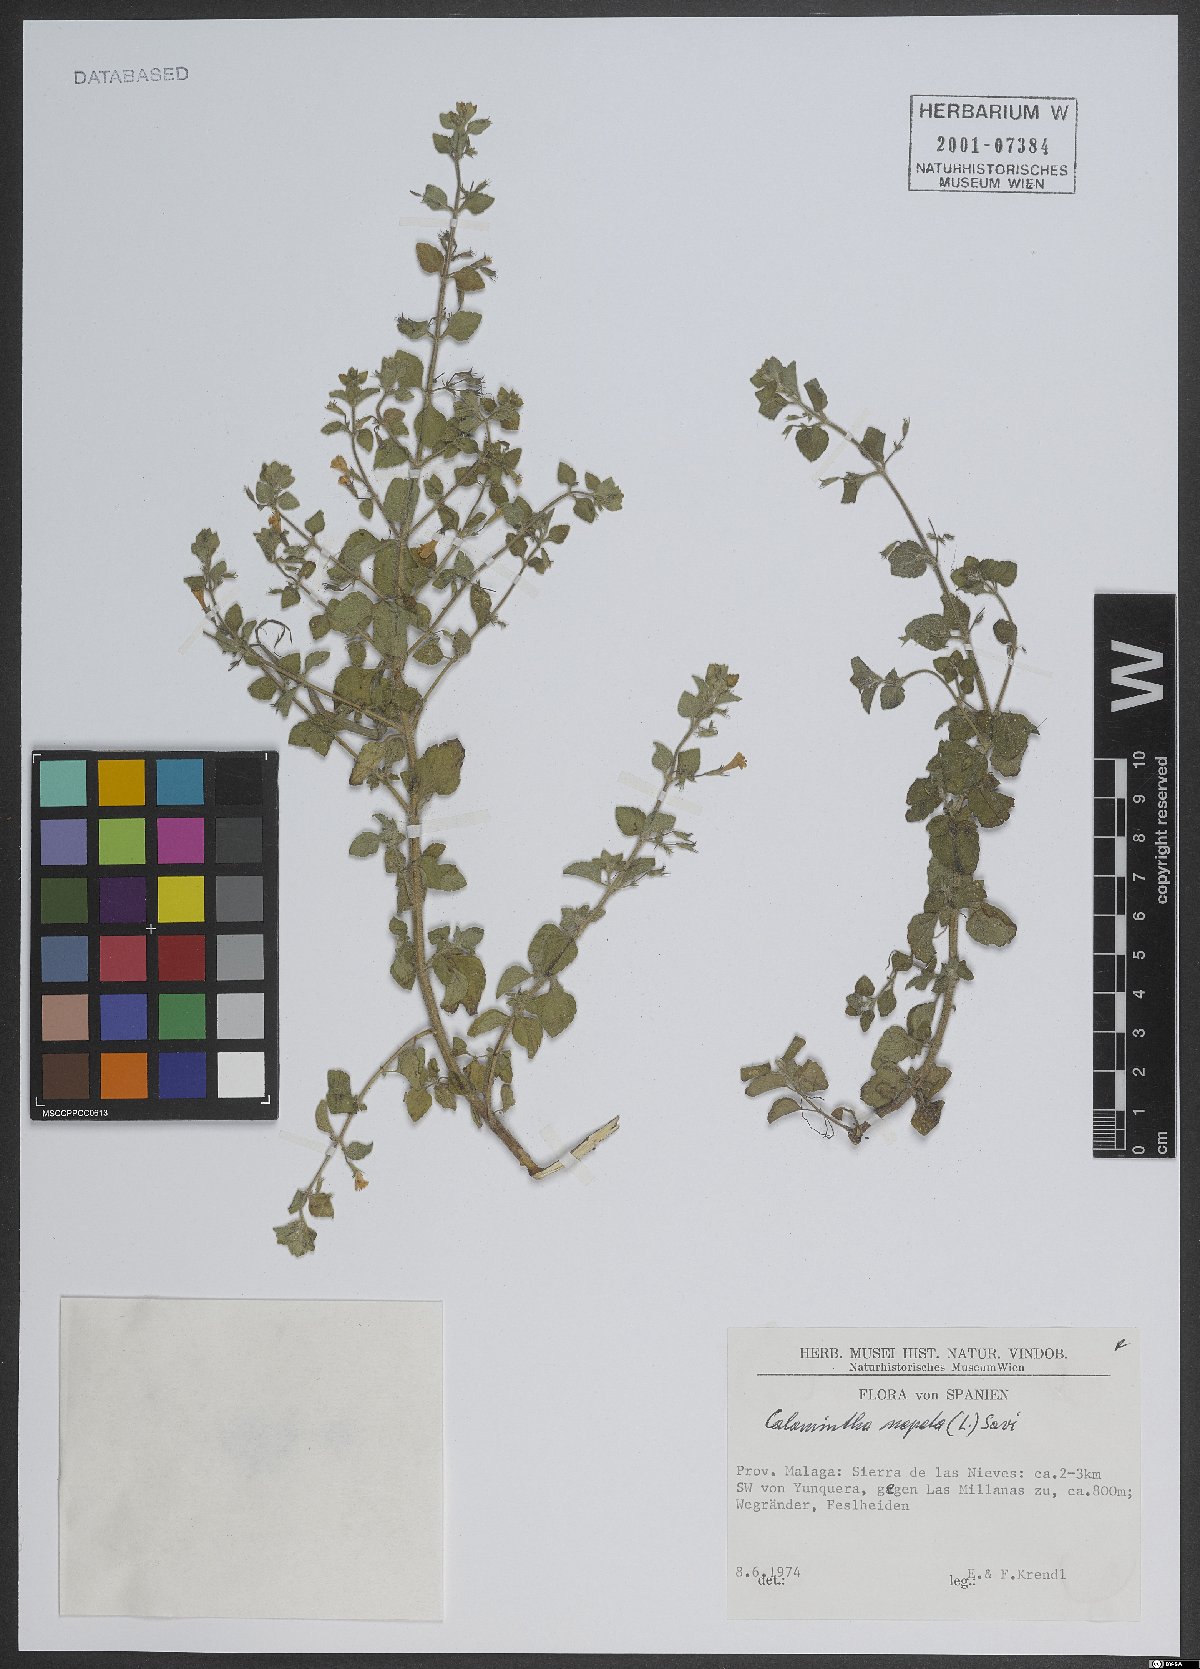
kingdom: Plantae
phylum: Tracheophyta
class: Magnoliopsida
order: Lamiales
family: Lamiaceae
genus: Clinopodium
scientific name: Clinopodium nepeta
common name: Lesser calamint
